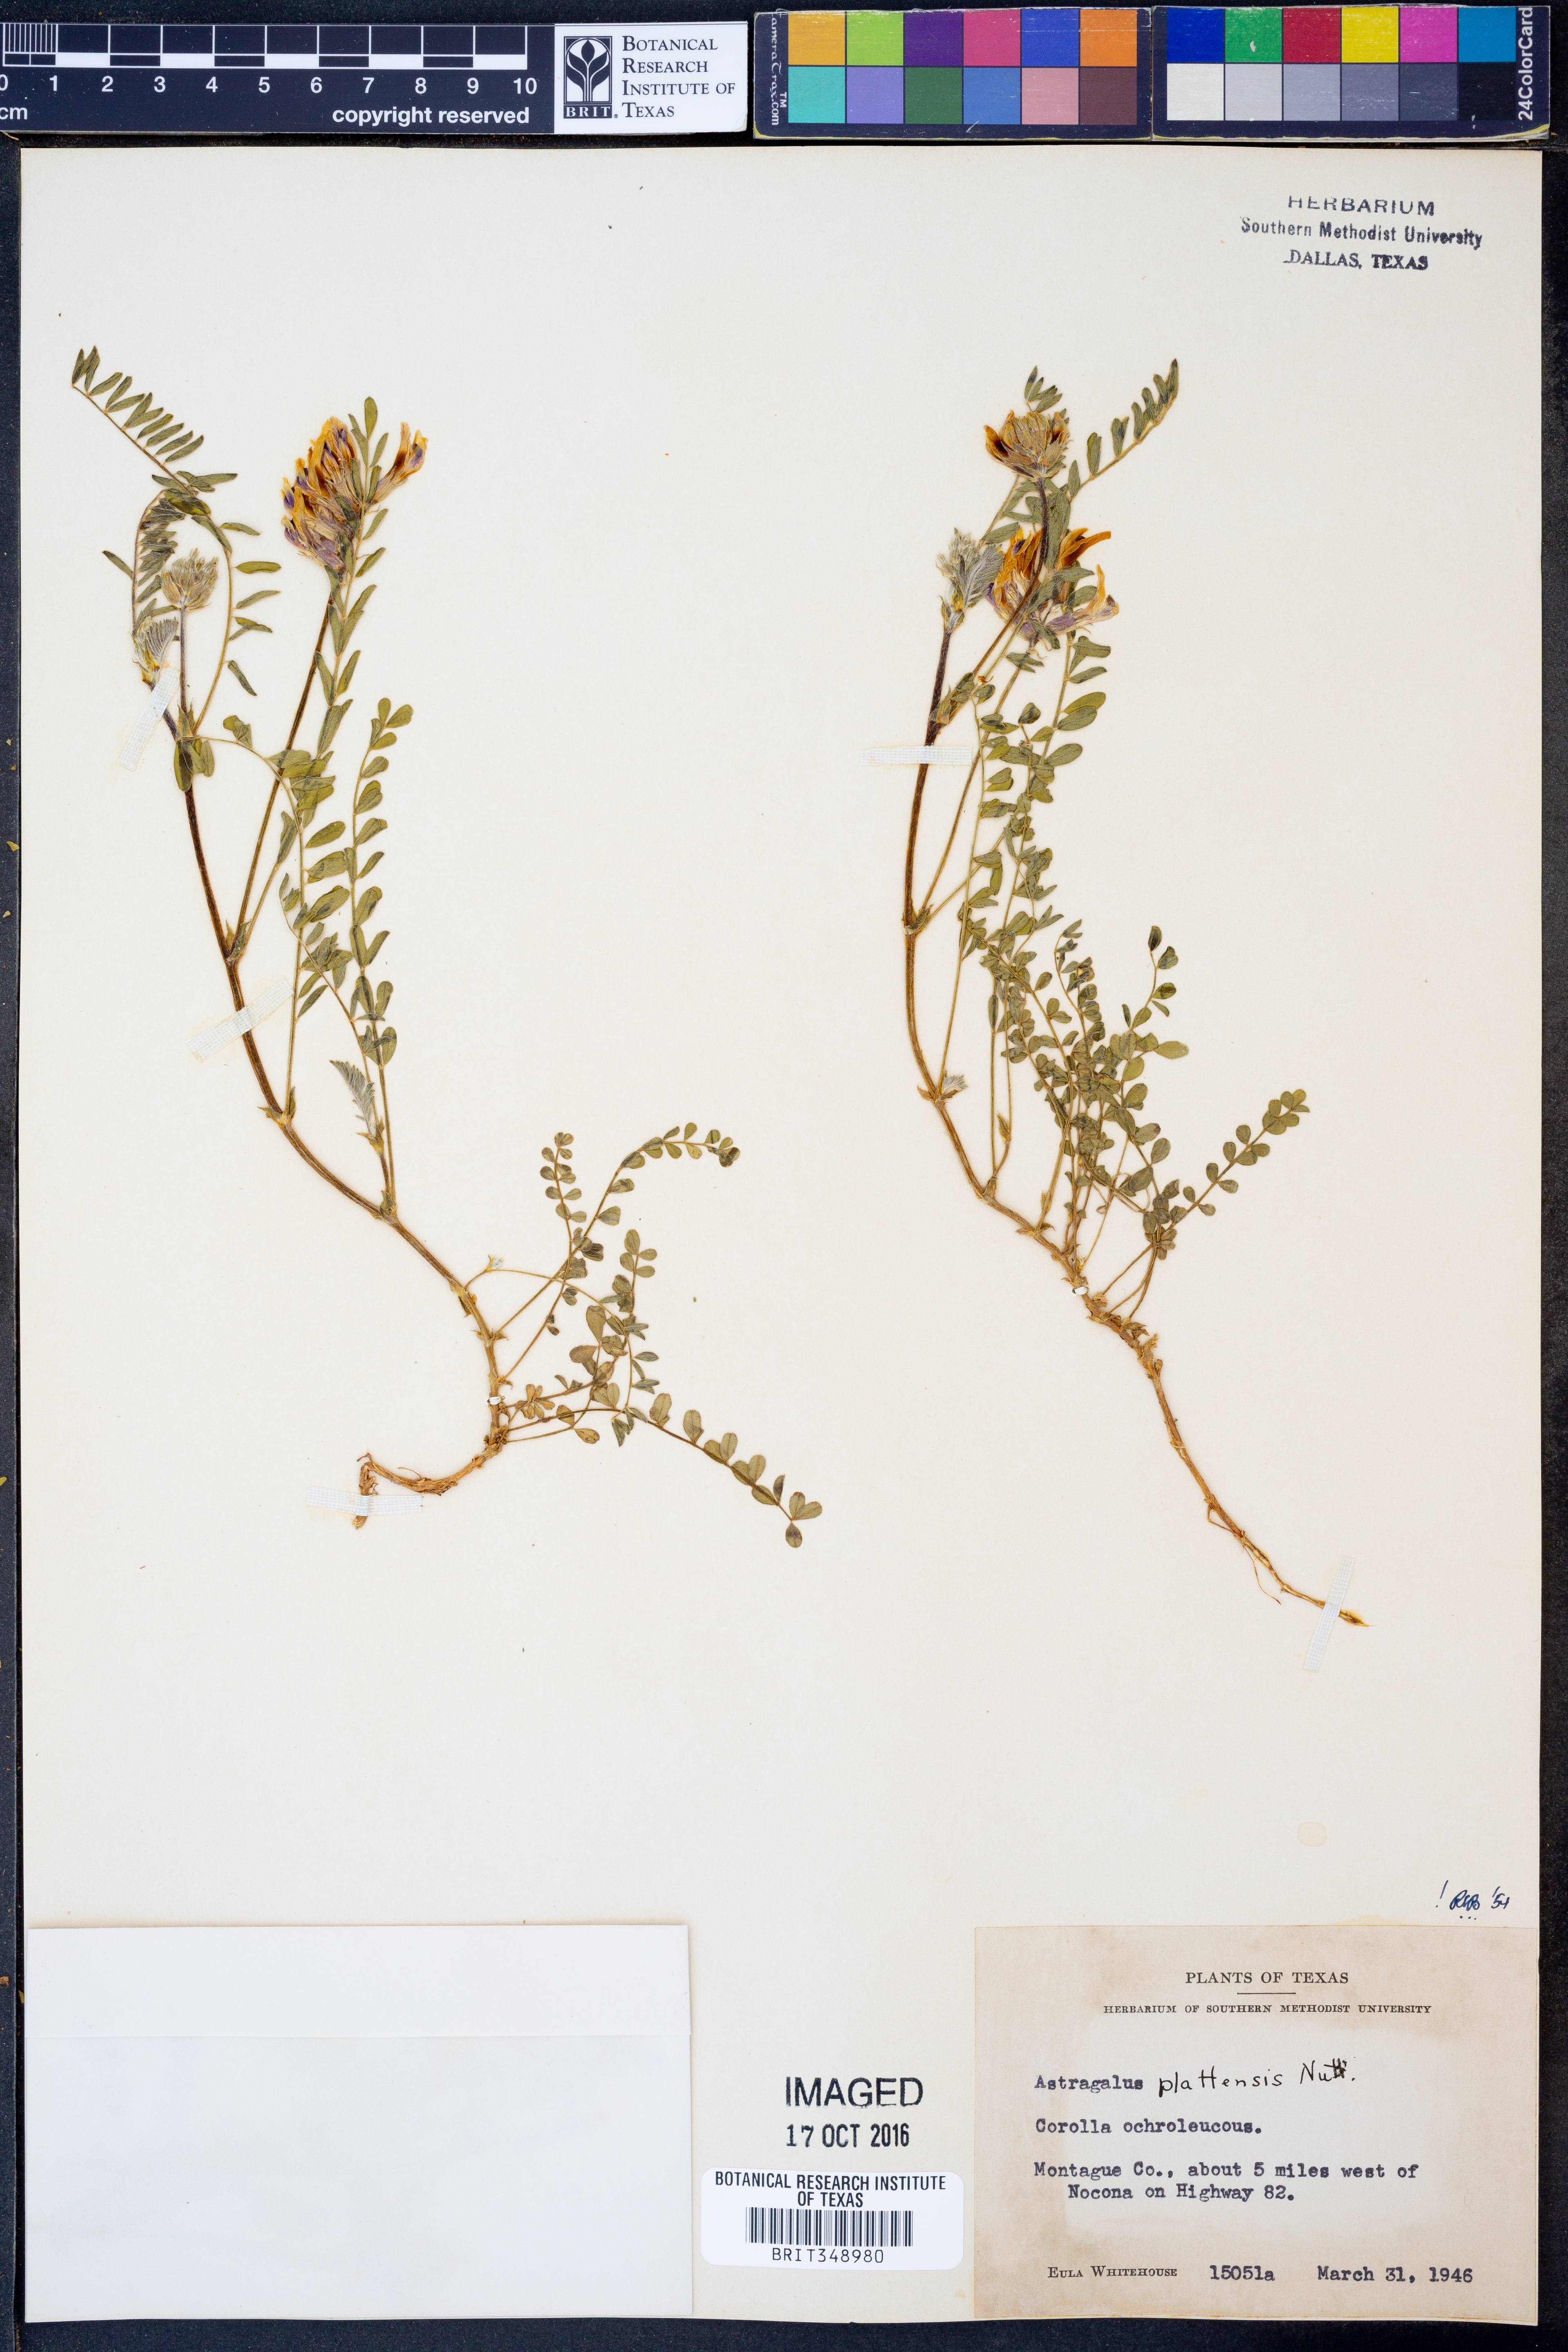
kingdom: Plantae
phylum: Tracheophyta
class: Magnoliopsida
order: Fabales
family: Fabaceae
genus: Astragalus
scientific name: Astragalus plattensis
